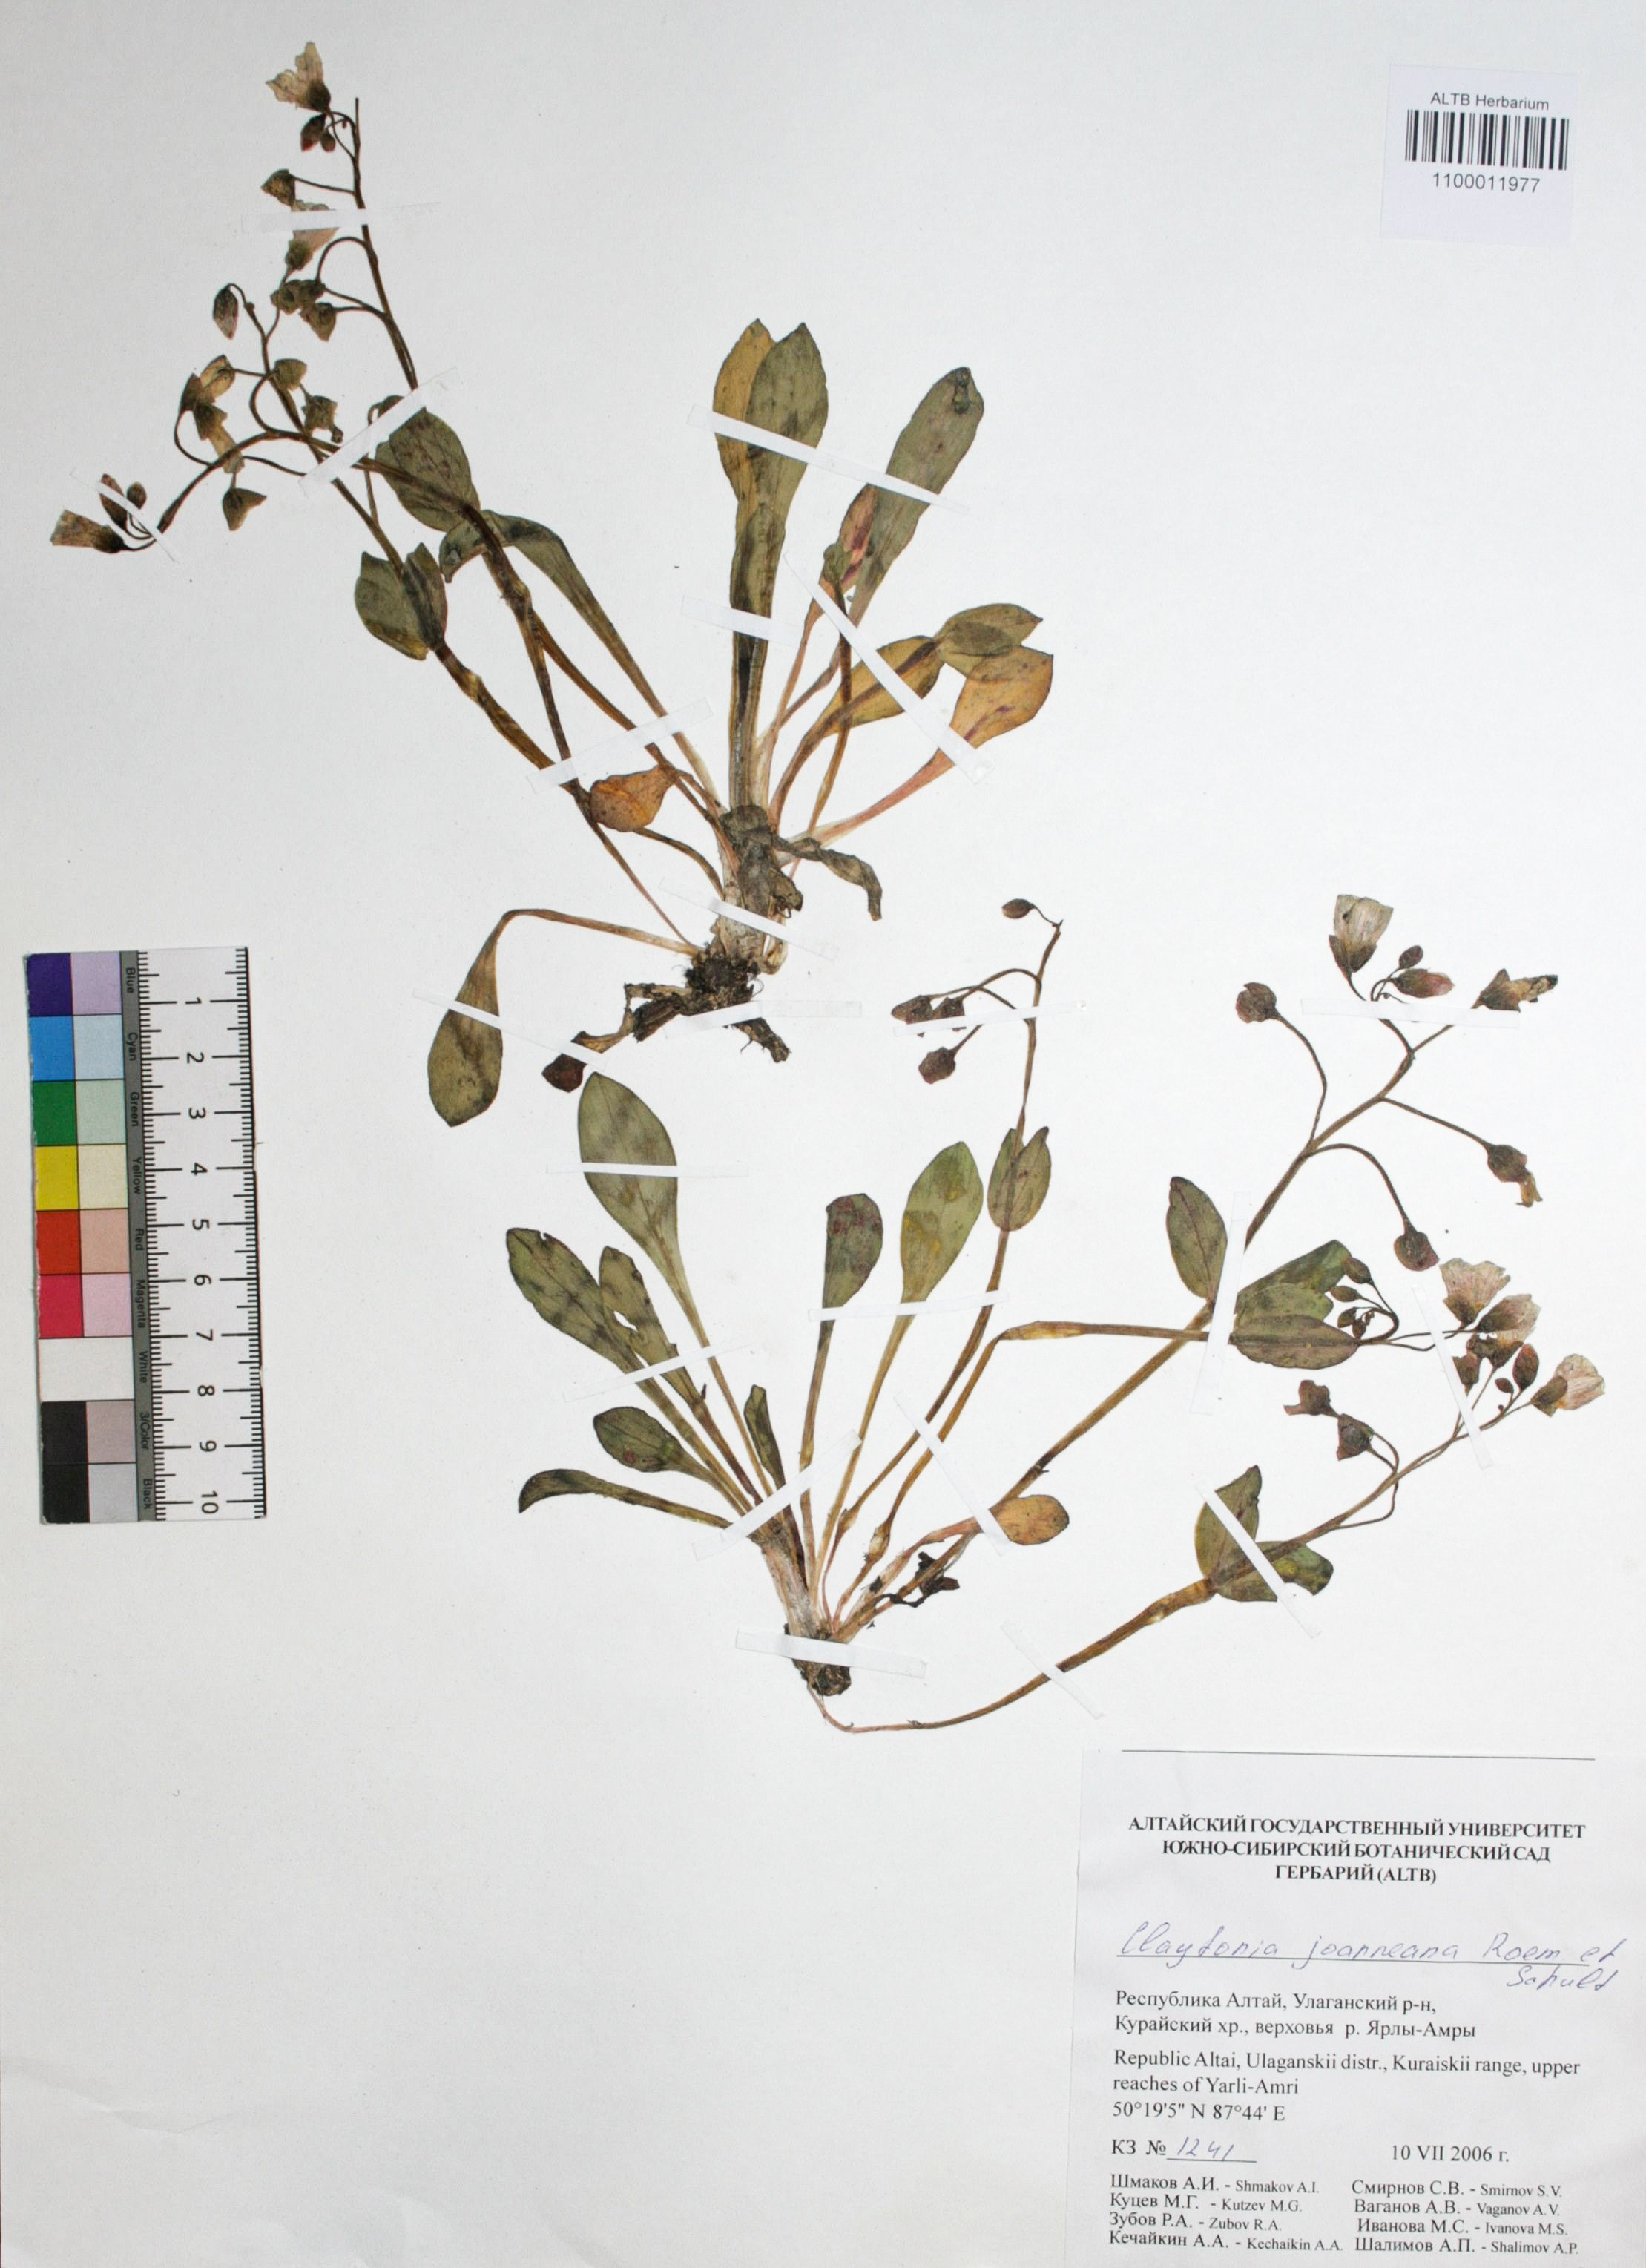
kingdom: Plantae
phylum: Tracheophyta
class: Magnoliopsida
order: Caryophyllales
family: Montiaceae
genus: Claytonia
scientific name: Claytonia joanneana
